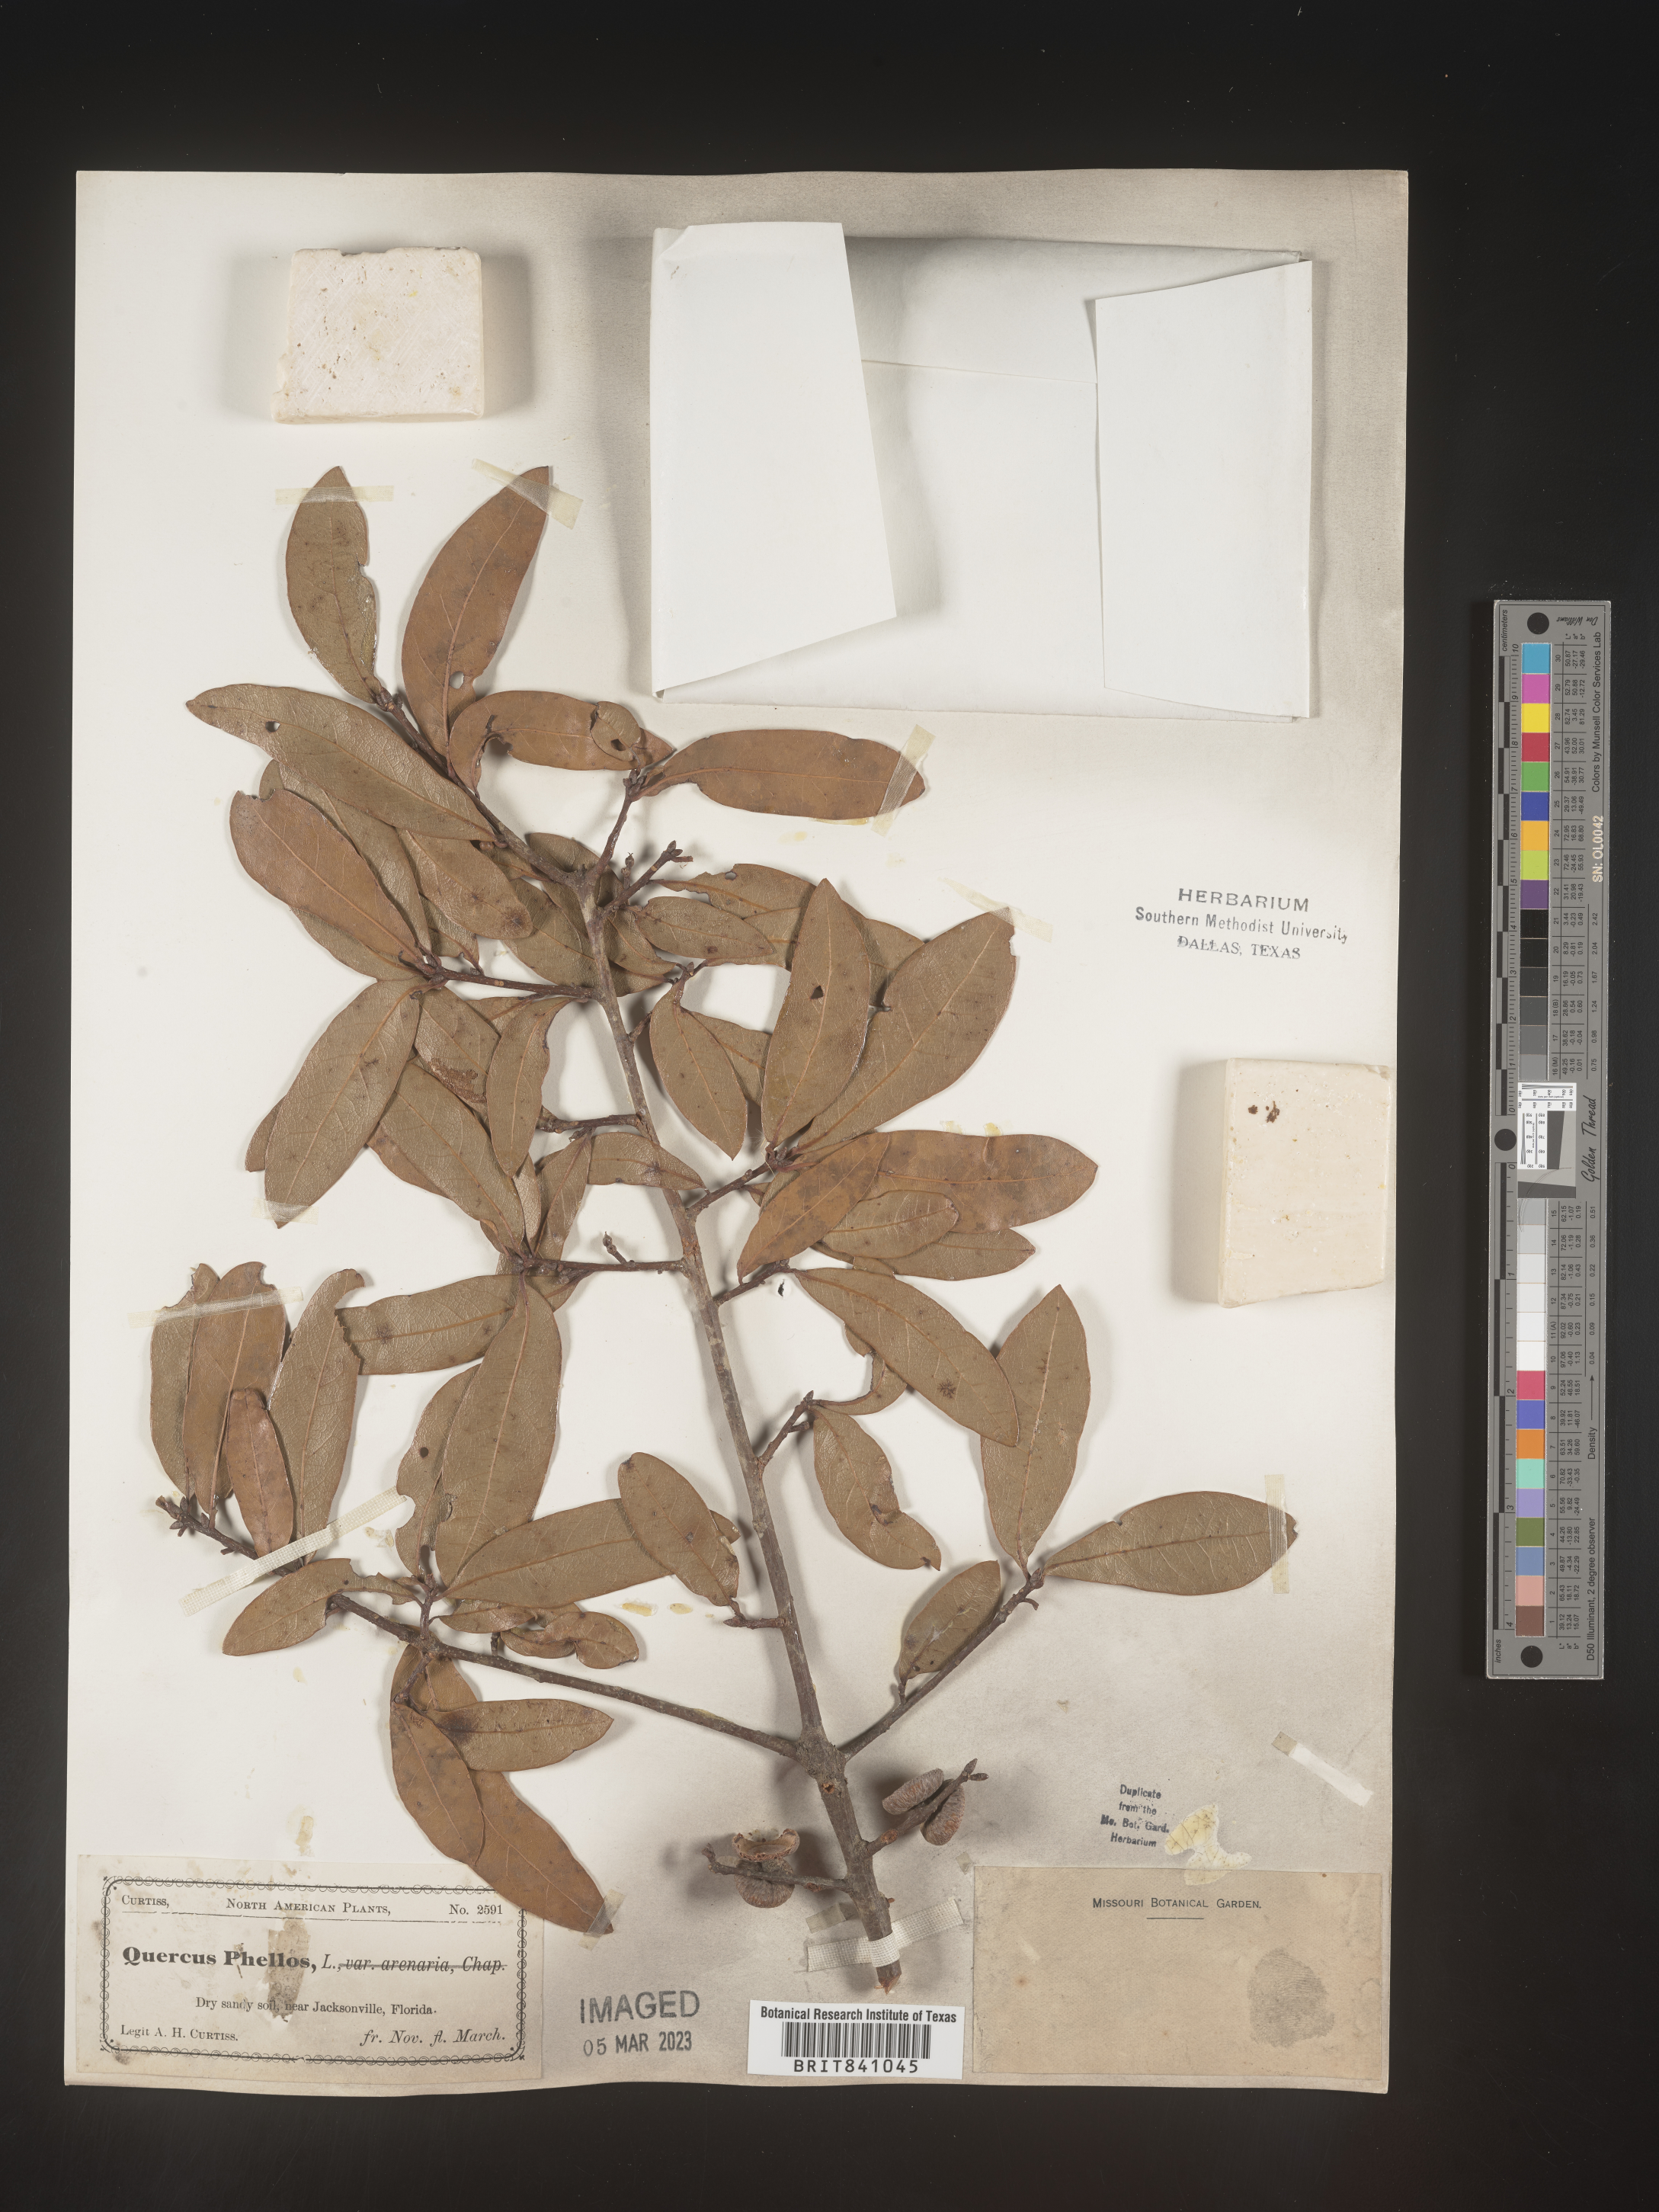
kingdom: Plantae
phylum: Tracheophyta
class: Magnoliopsida
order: Fagales
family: Fagaceae
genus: Quercus
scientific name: Quercus phellos
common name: Willow oak
